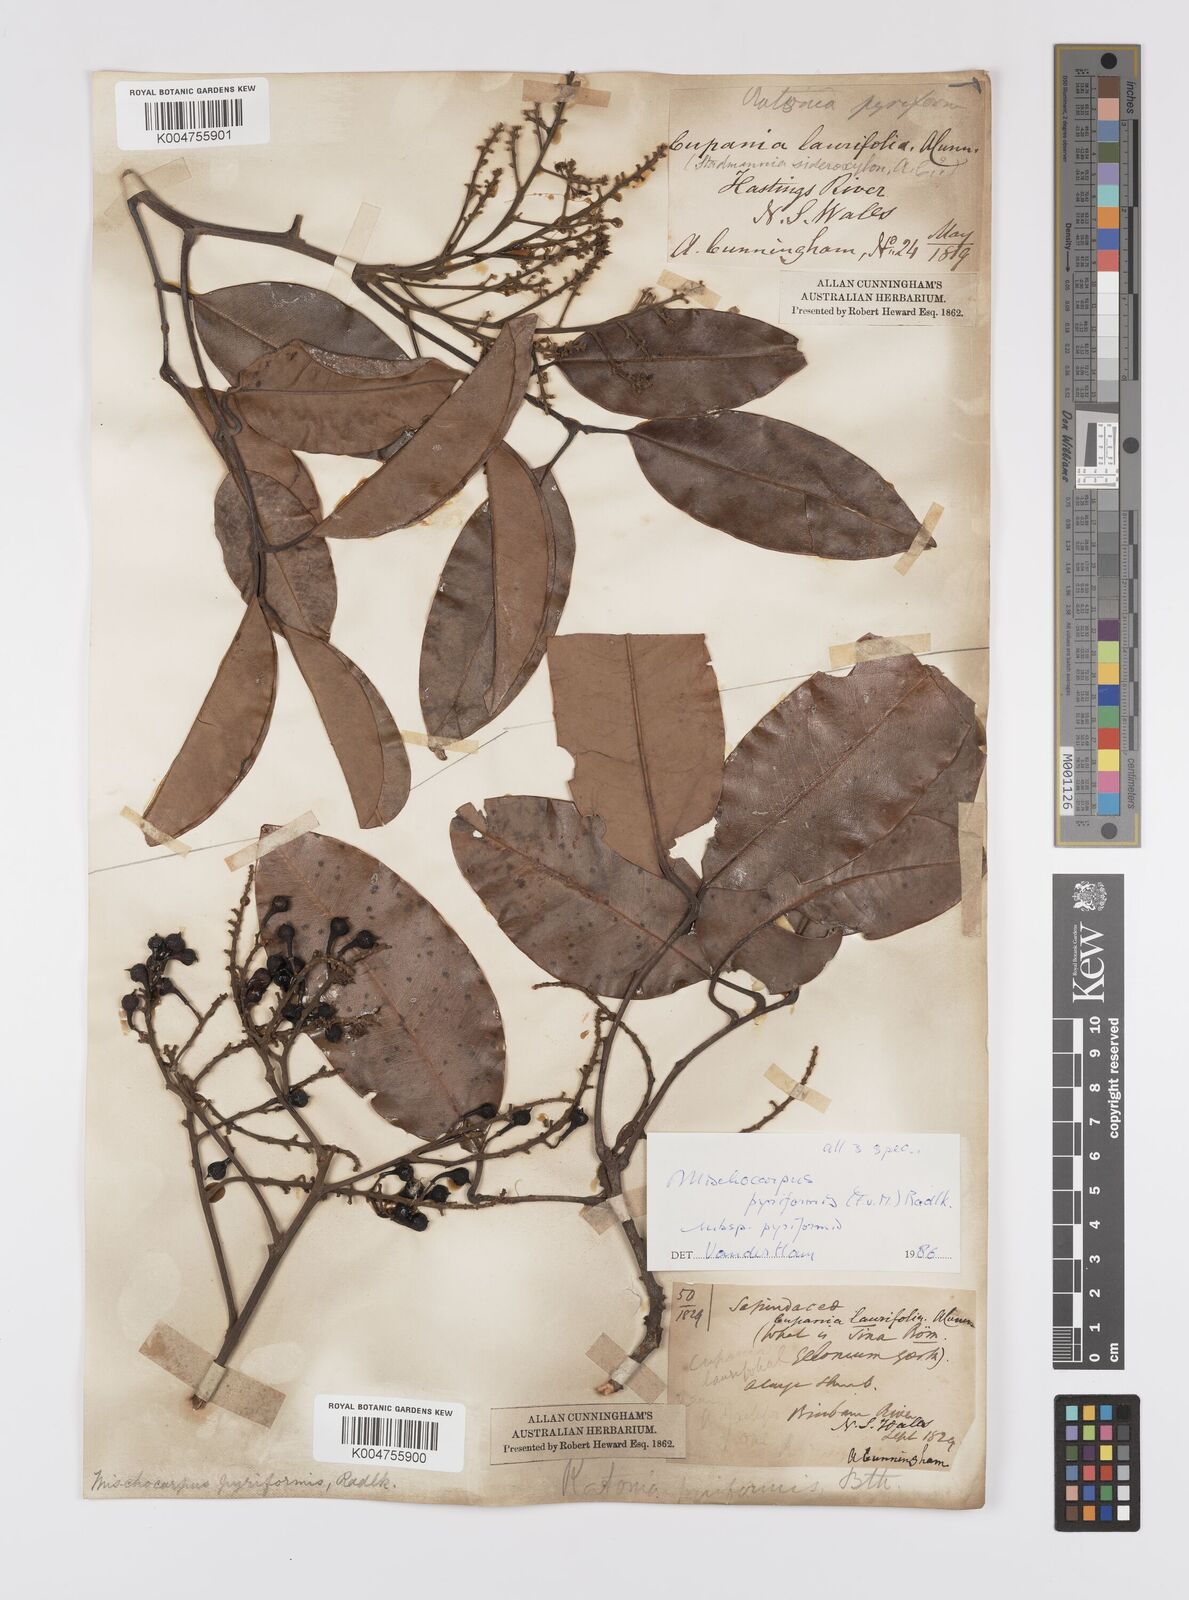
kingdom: Plantae
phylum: Tracheophyta
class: Magnoliopsida
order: Sapindales
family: Sapindaceae
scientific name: Sapindaceae
